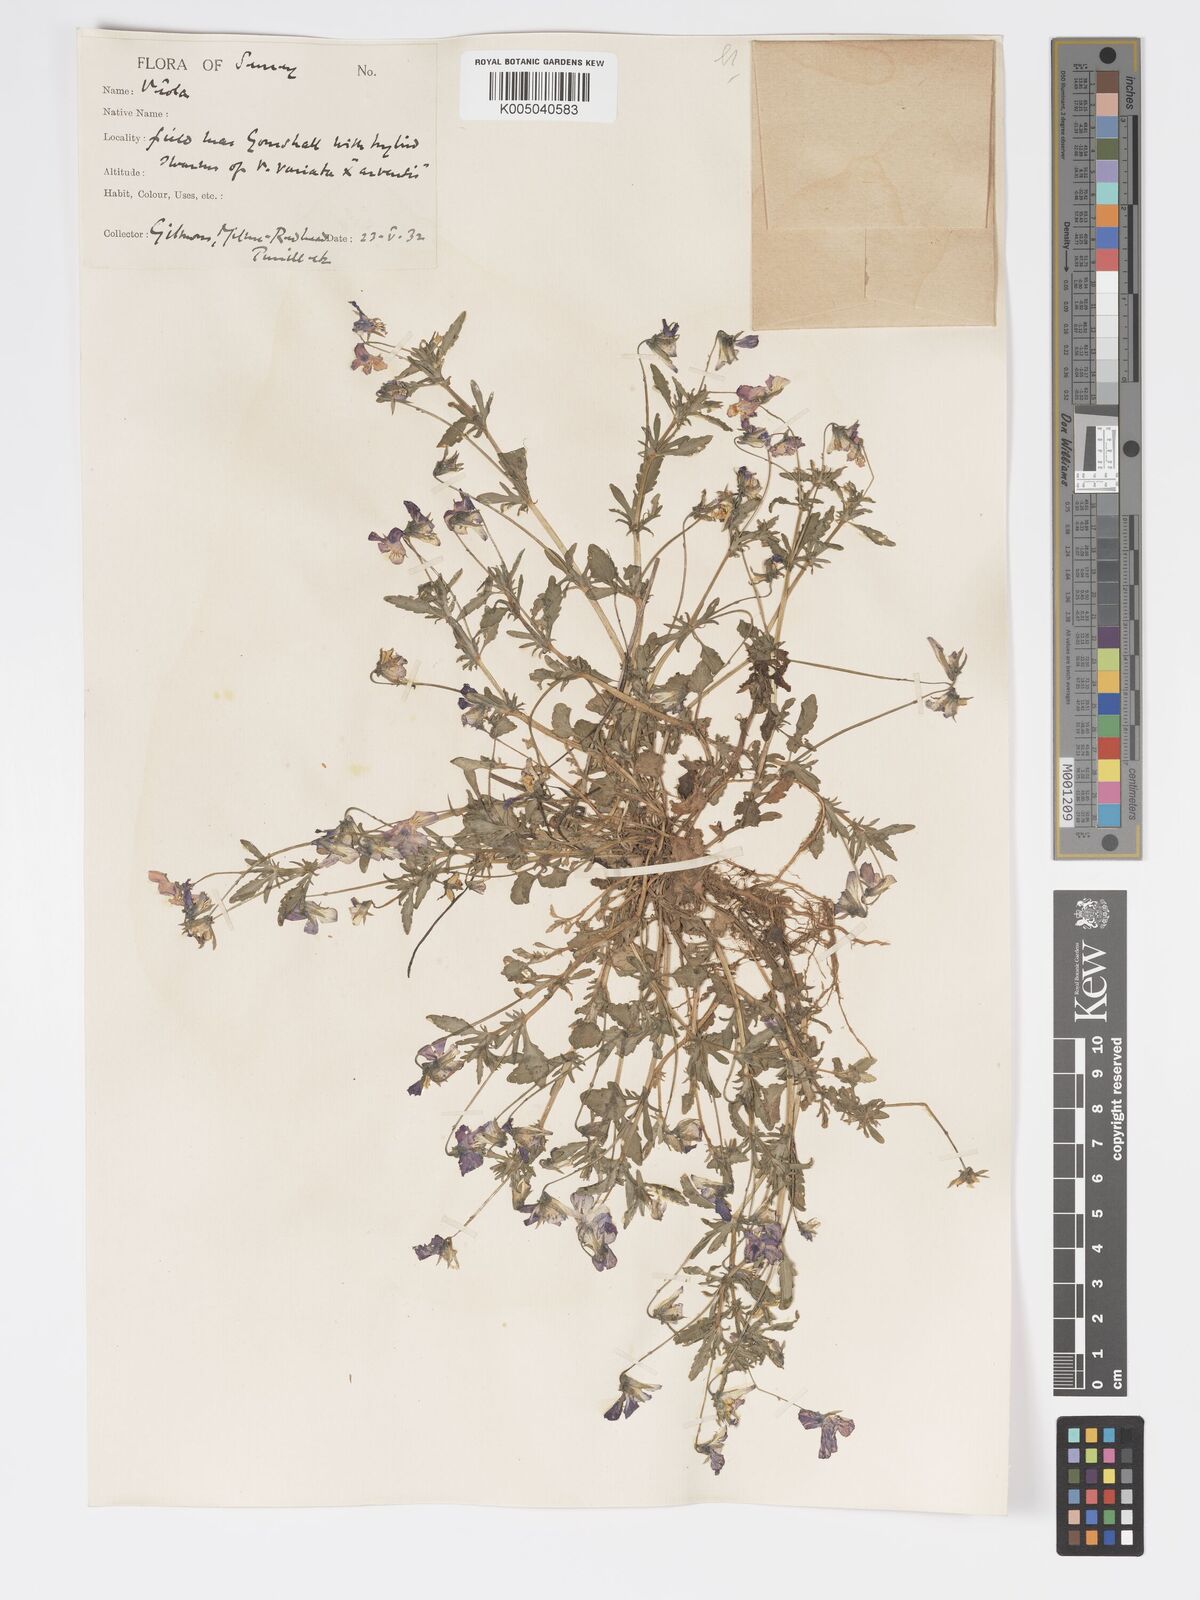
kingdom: Plantae
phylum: Tracheophyta
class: Magnoliopsida
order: Malpighiales
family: Violaceae
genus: Viola
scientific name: Viola
